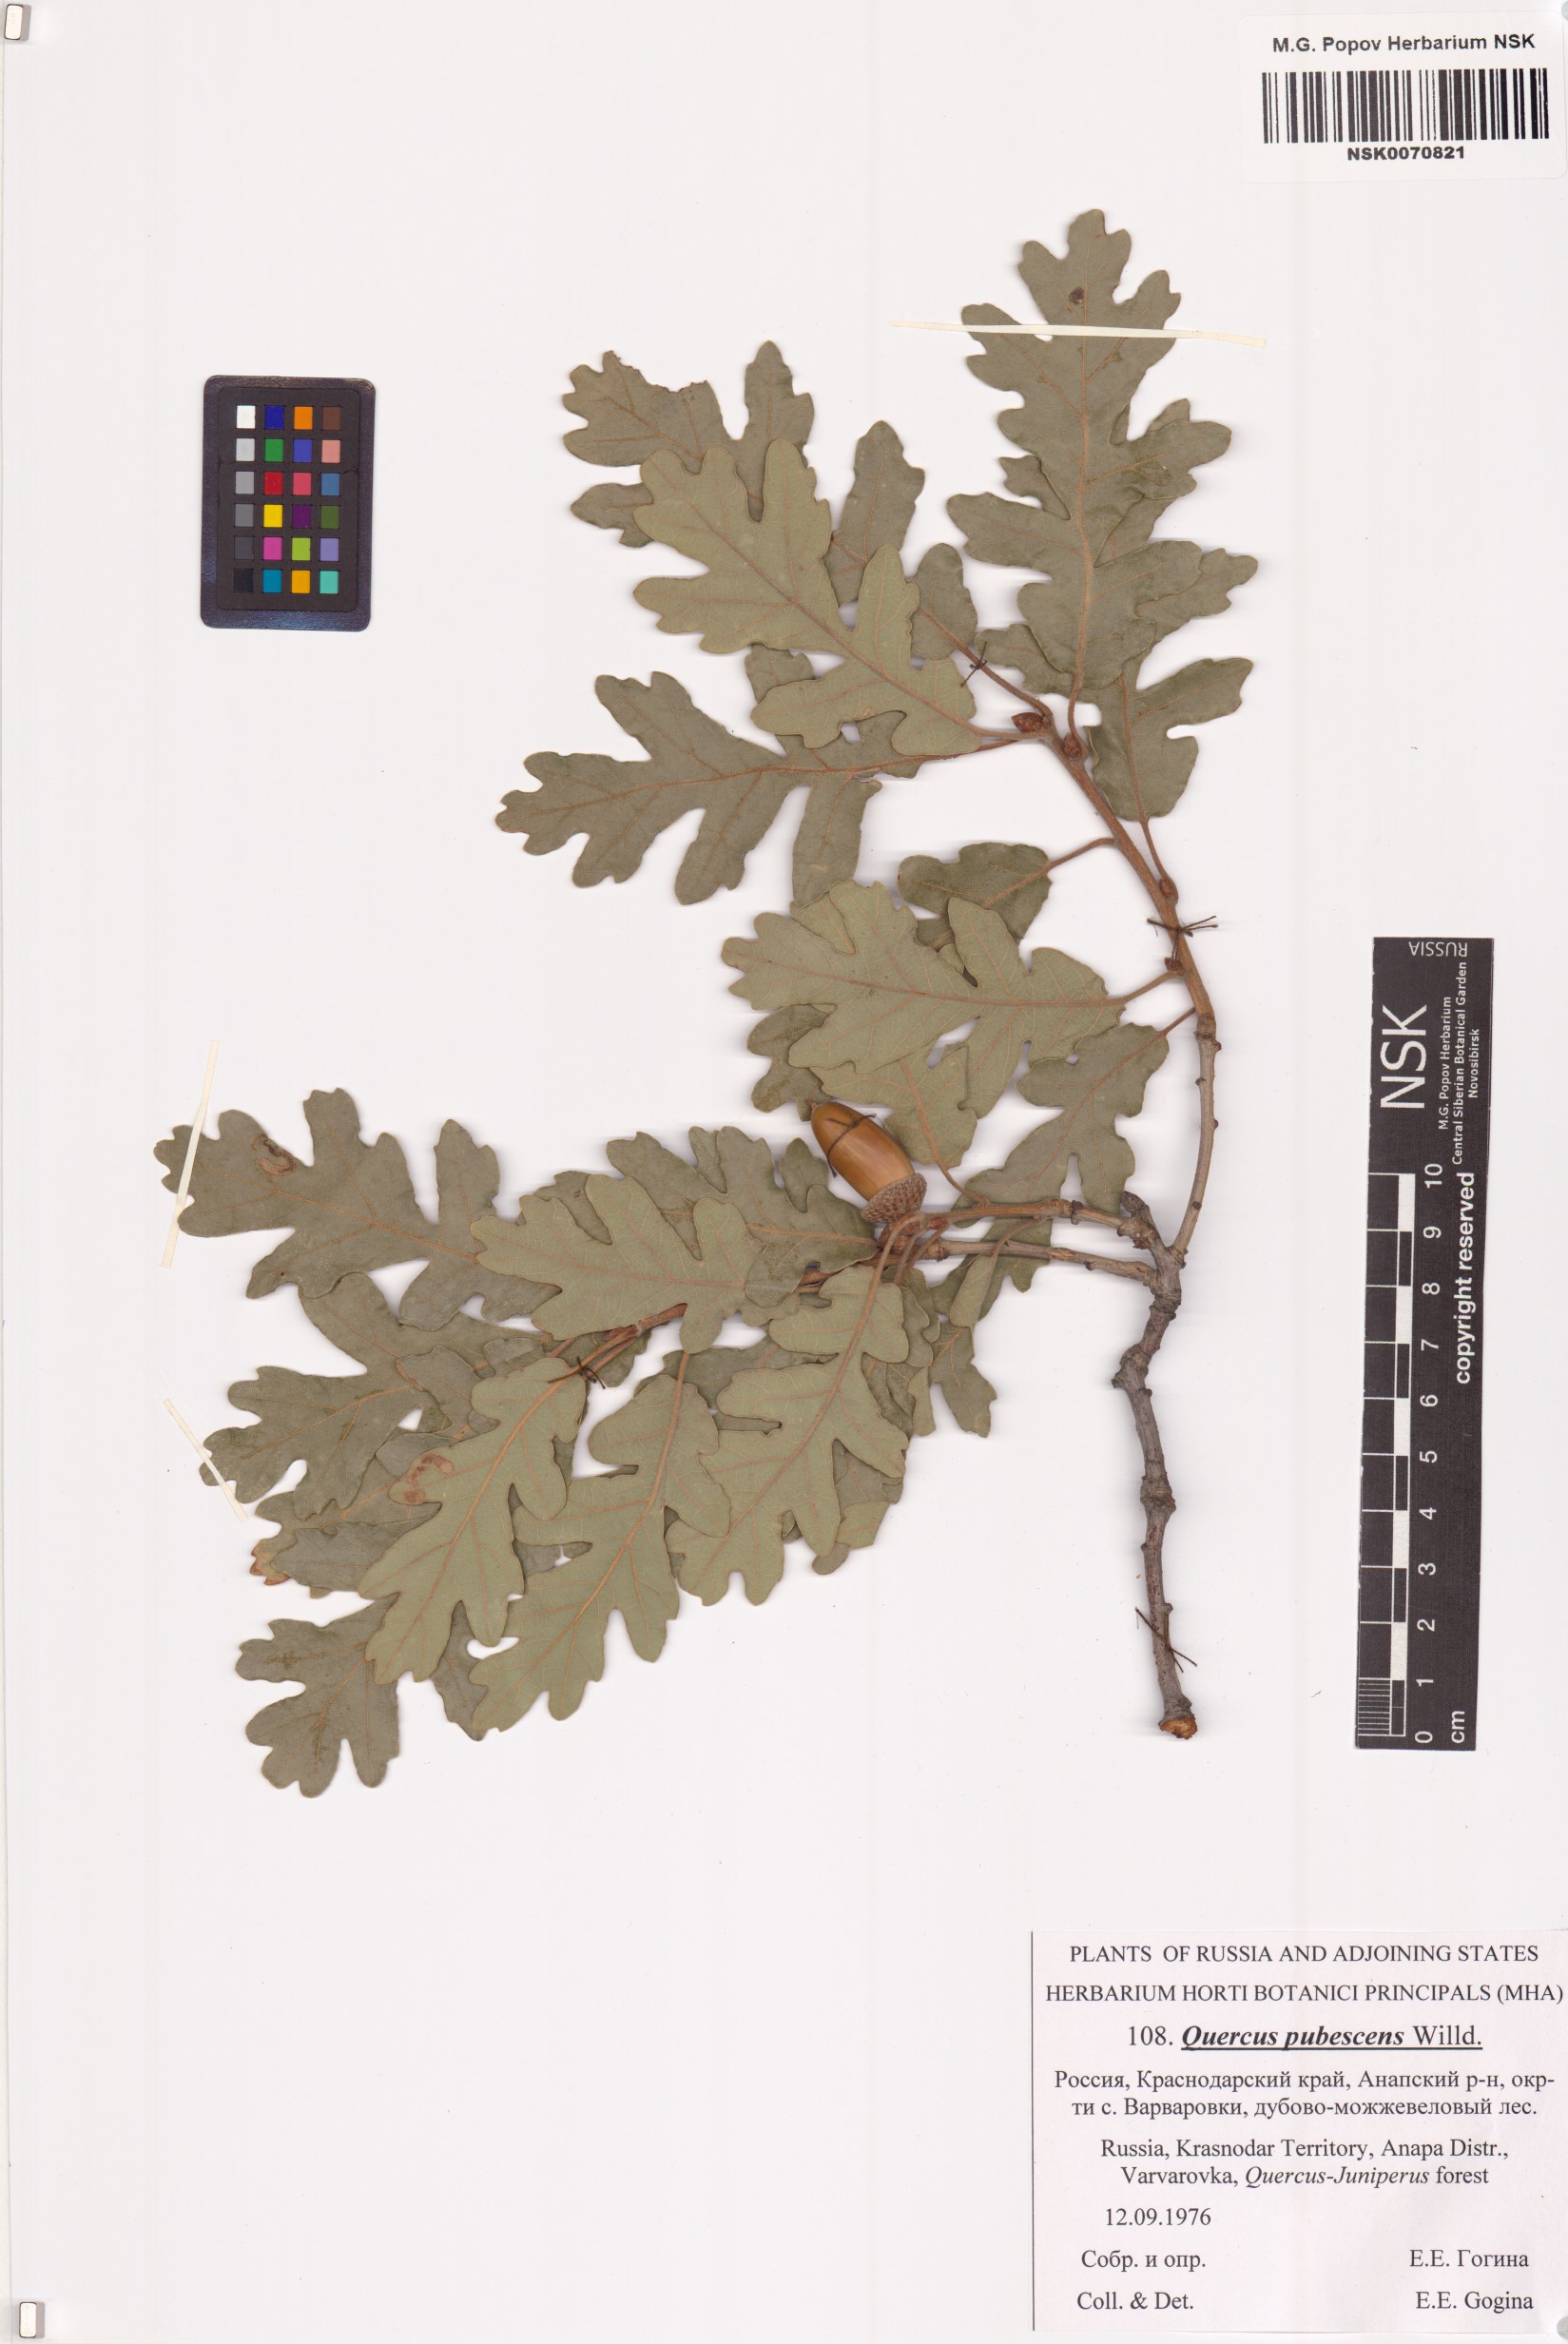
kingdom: Plantae
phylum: Tracheophyta
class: Magnoliopsida
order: Fagales
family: Fagaceae
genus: Quercus
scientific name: Quercus pubescens
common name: Downy oak
